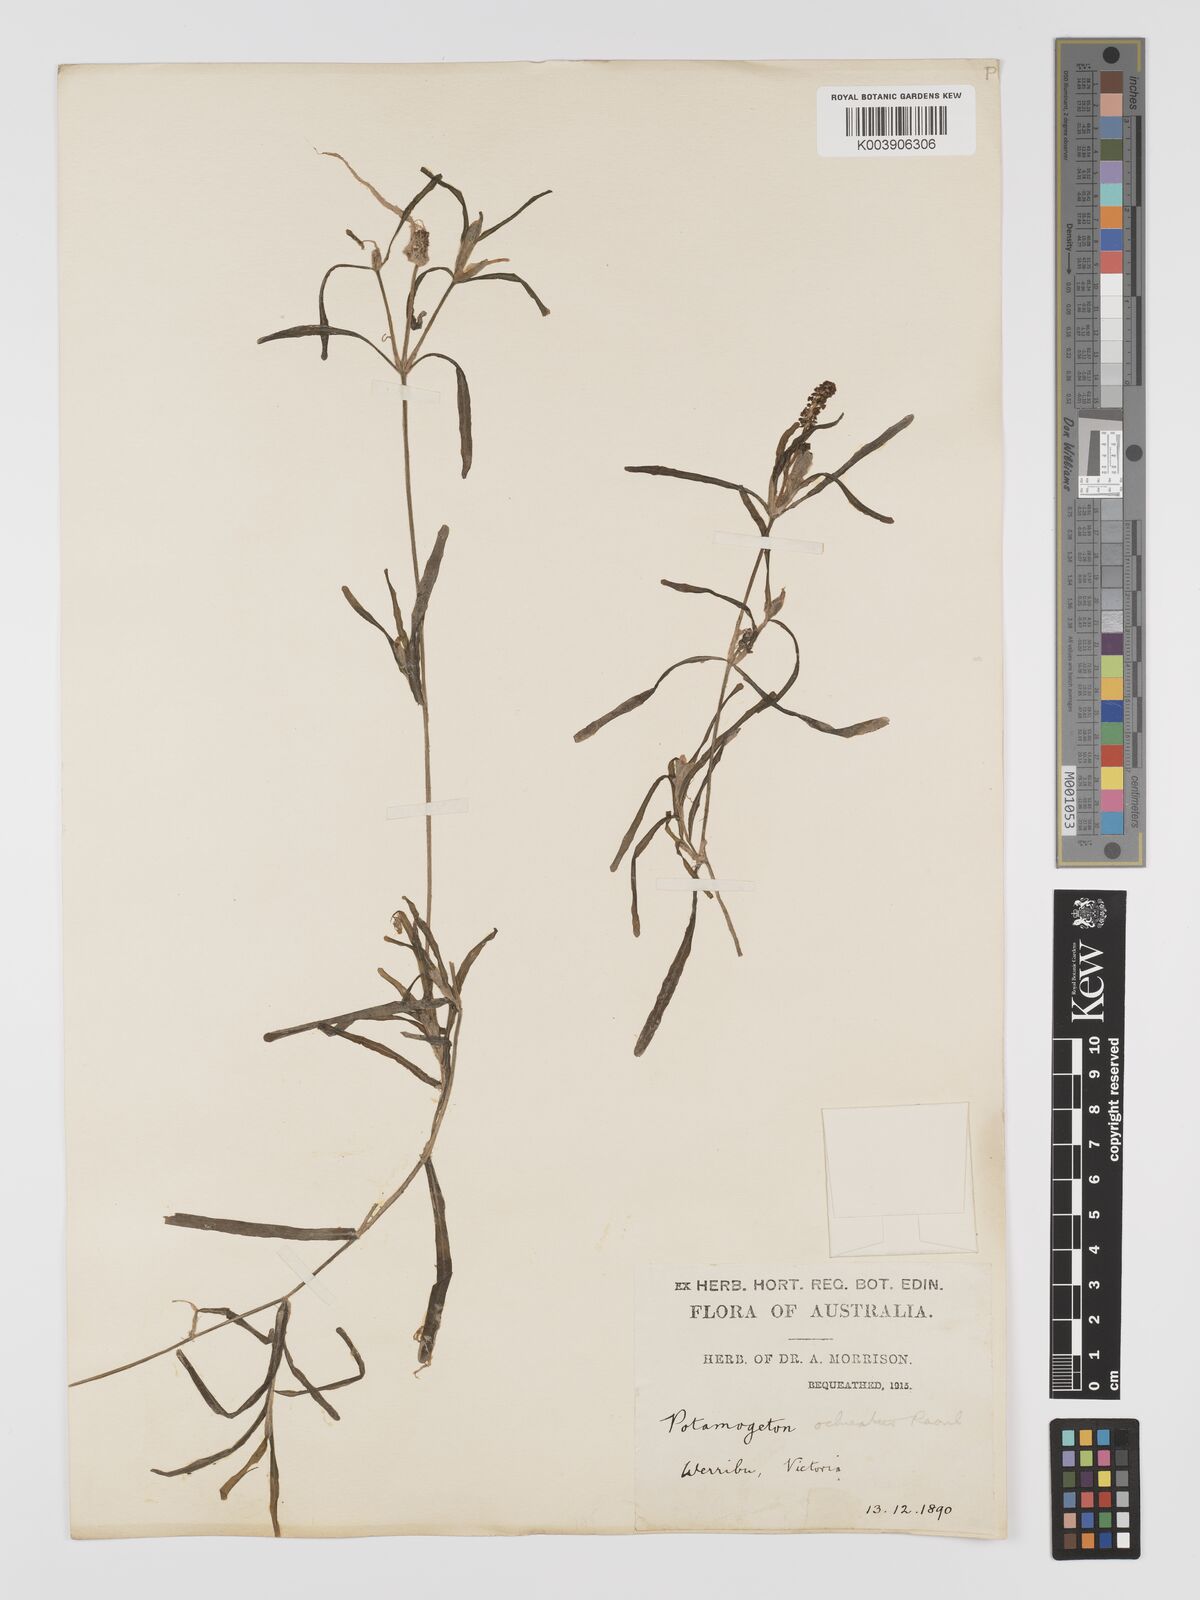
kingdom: Plantae
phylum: Tracheophyta
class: Liliopsida
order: Alismatales
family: Potamogetonaceae
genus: Potamogeton
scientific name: Potamogeton ochreatus
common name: Blunt pondweed
